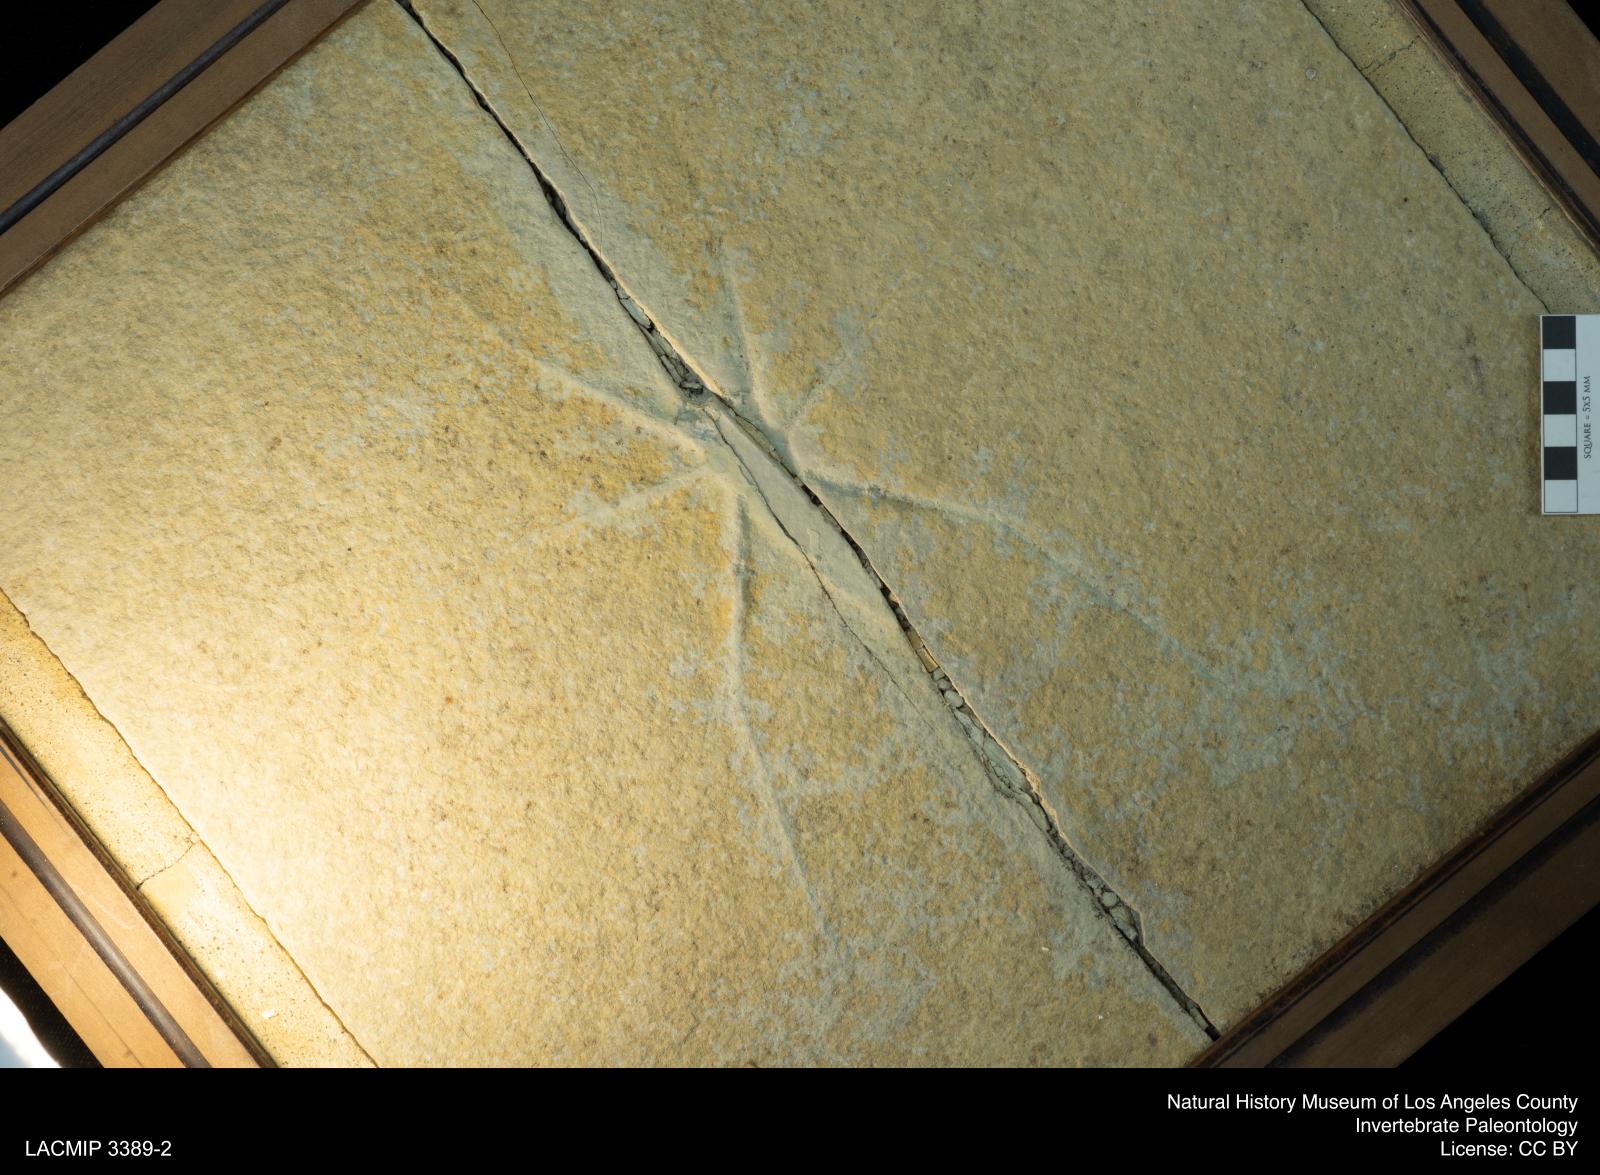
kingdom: Animalia
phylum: Arthropoda
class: Insecta
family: Chresmodidae
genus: Chresmoda
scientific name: Chresmoda obscura
